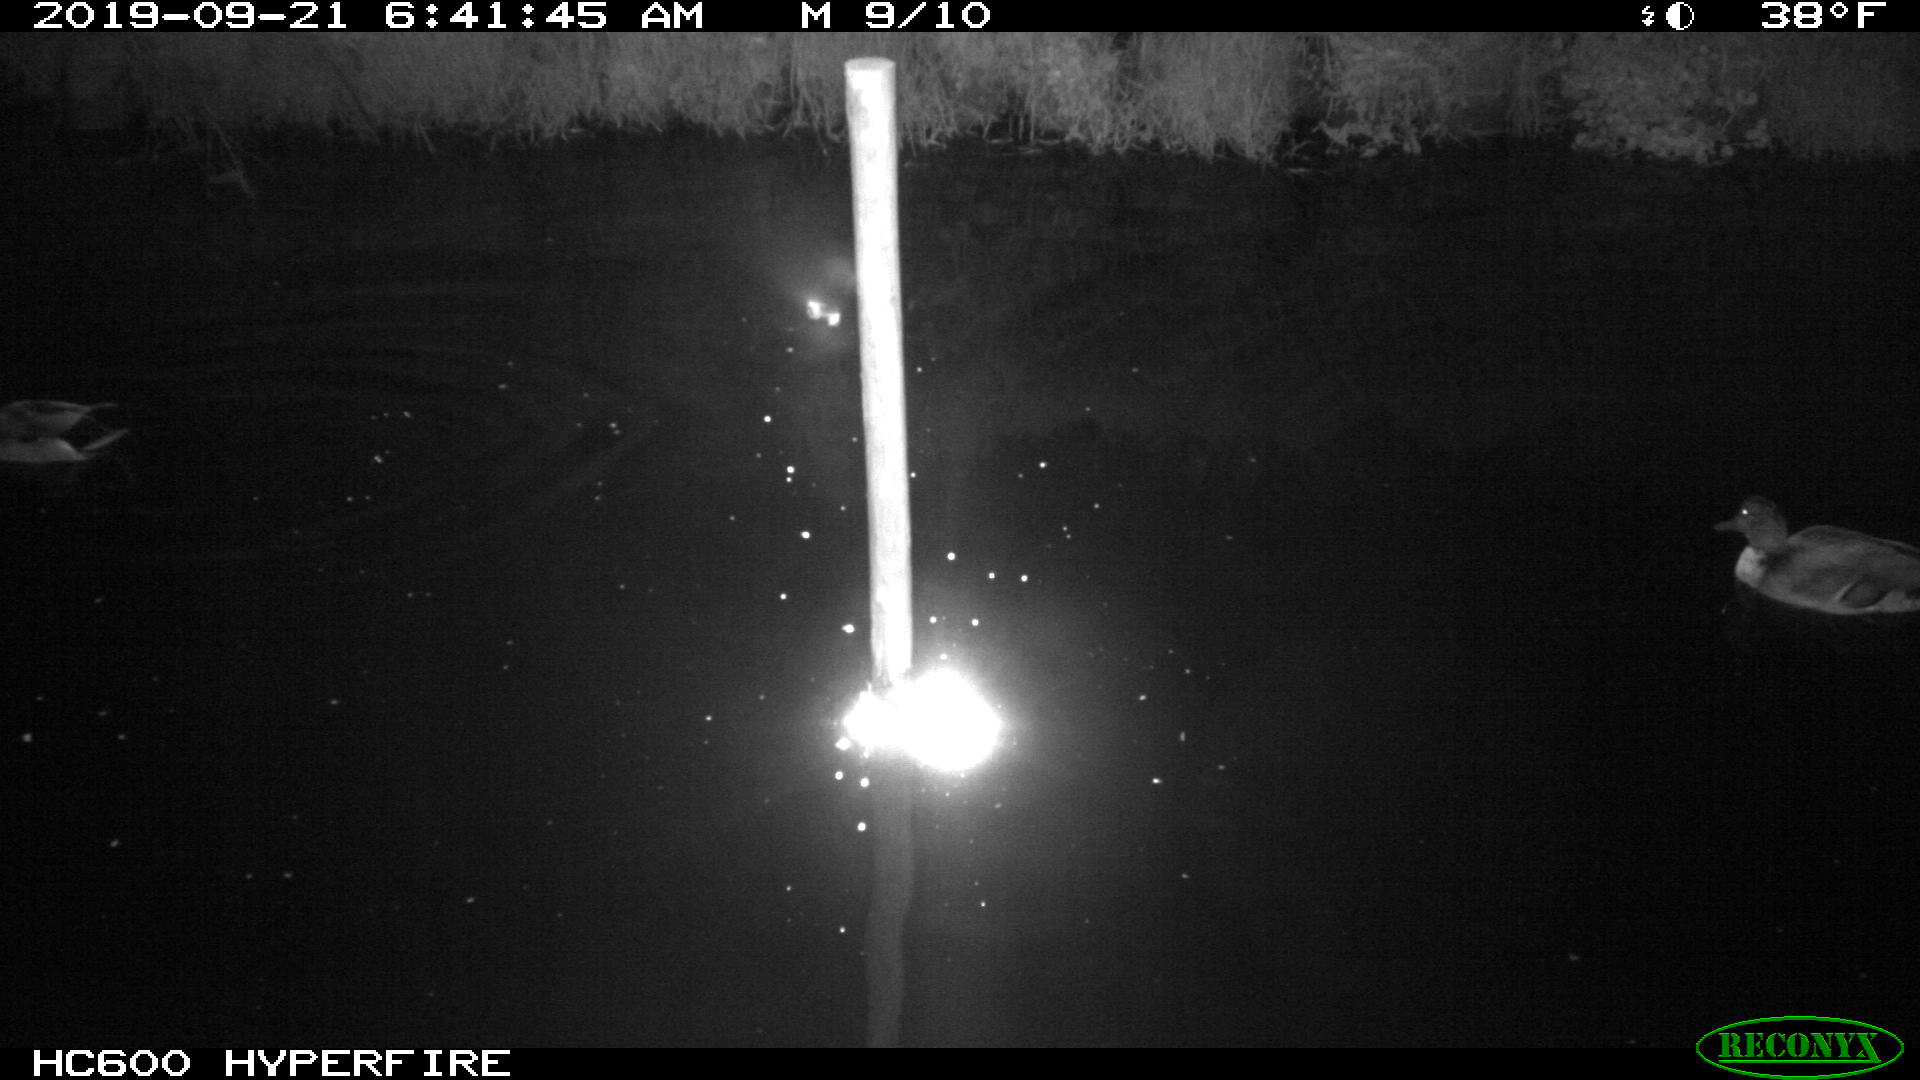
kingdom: Animalia
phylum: Chordata
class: Aves
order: Anseriformes
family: Anatidae
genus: Anas
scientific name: Anas platyrhynchos
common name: Mallard
